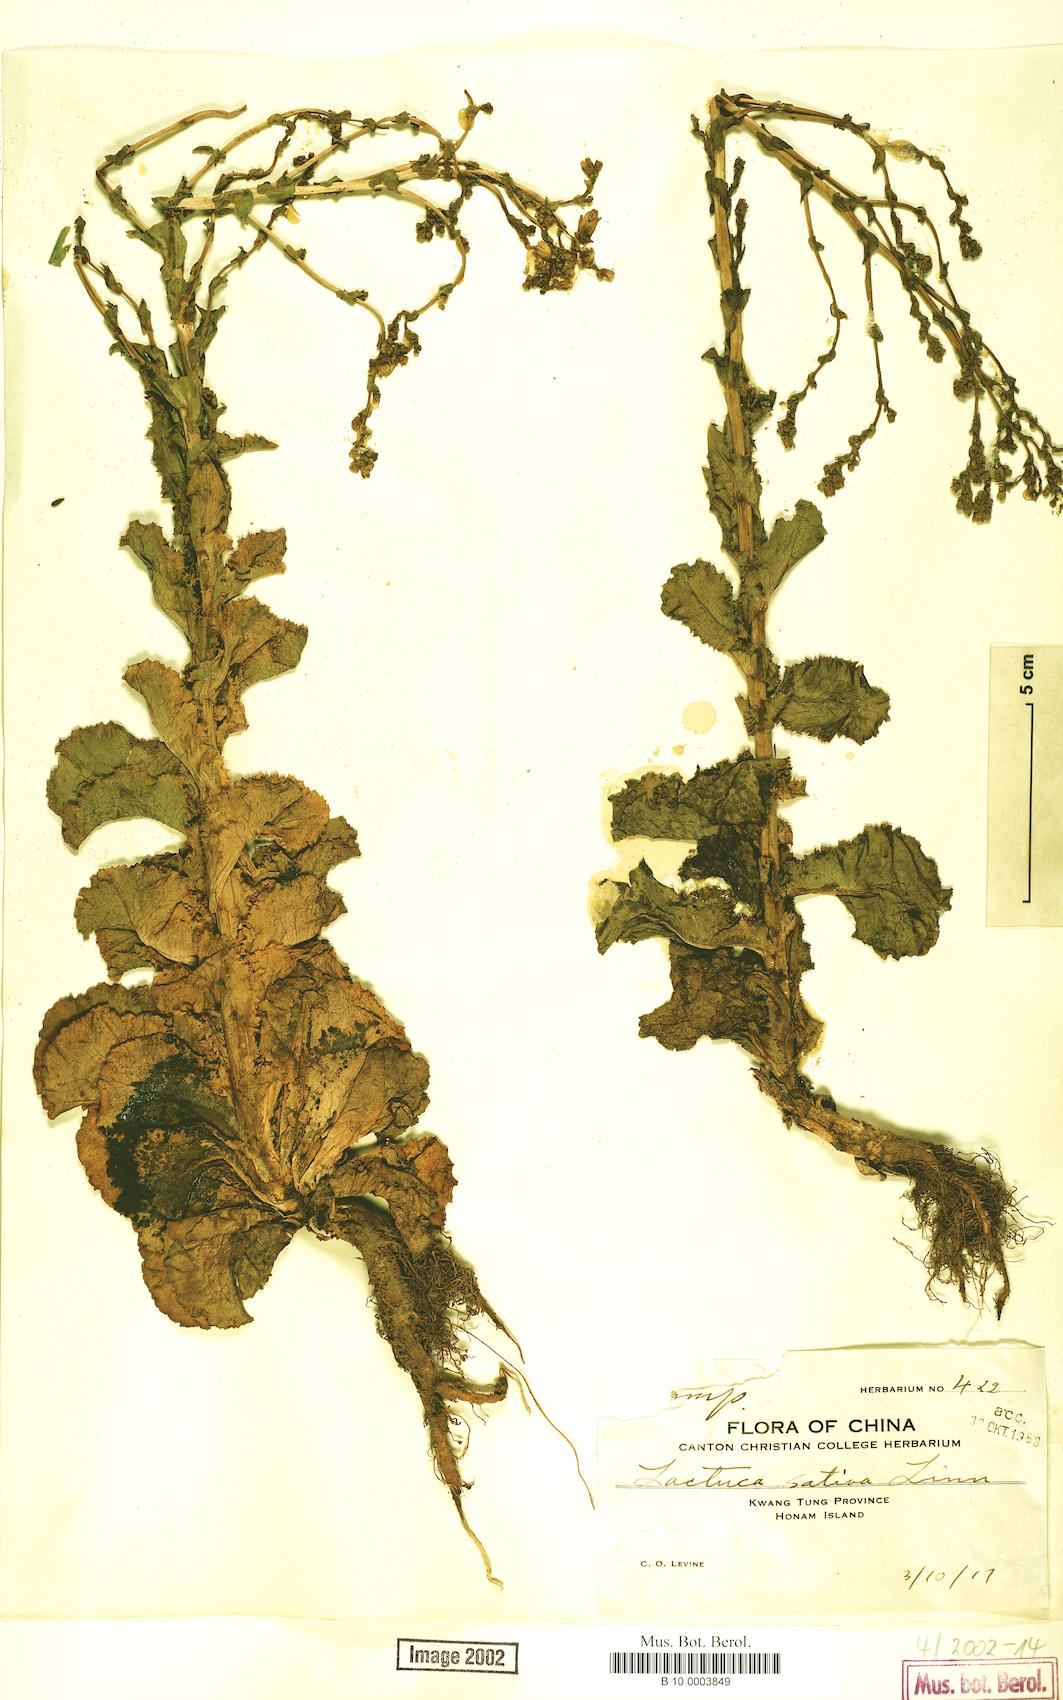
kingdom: Plantae
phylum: Tracheophyta
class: Magnoliopsida
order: Asterales
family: Asteraceae
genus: Lactuca
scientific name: Lactuca sativa
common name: Garden lettuce
